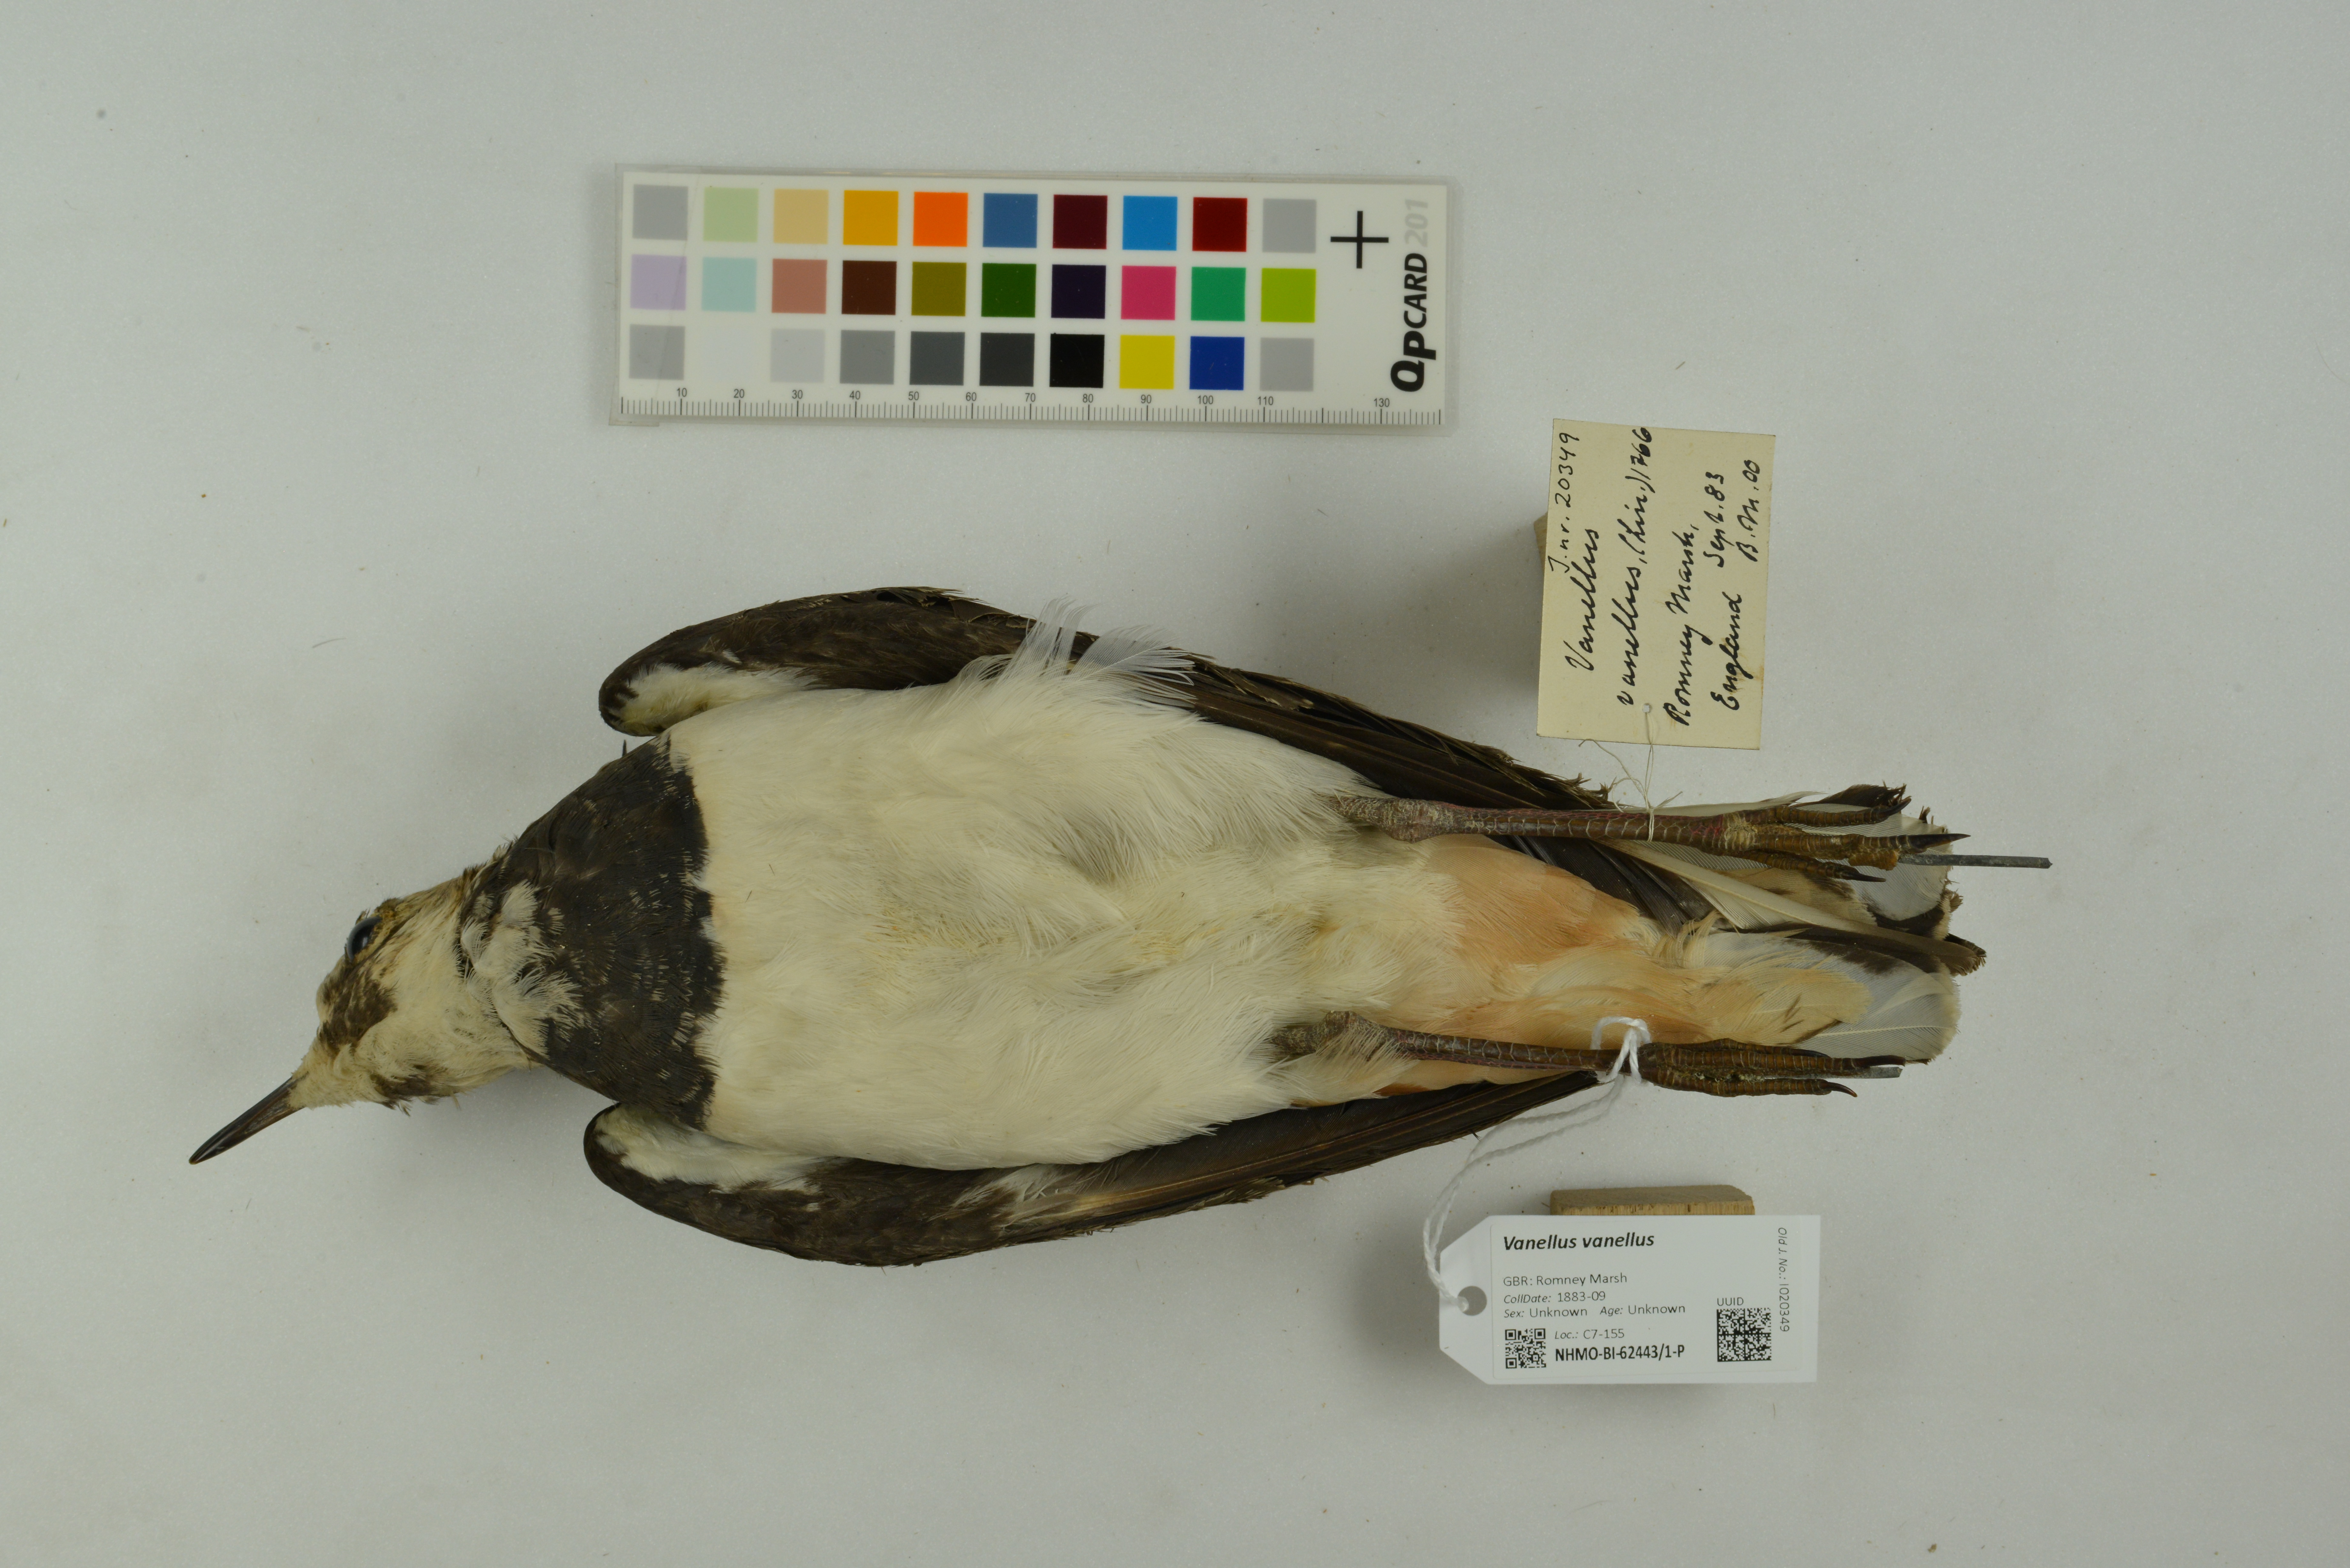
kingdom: Animalia
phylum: Chordata
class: Aves
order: Charadriiformes
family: Charadriidae
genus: Vanellus
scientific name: Vanellus vanellus
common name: Northern lapwing
